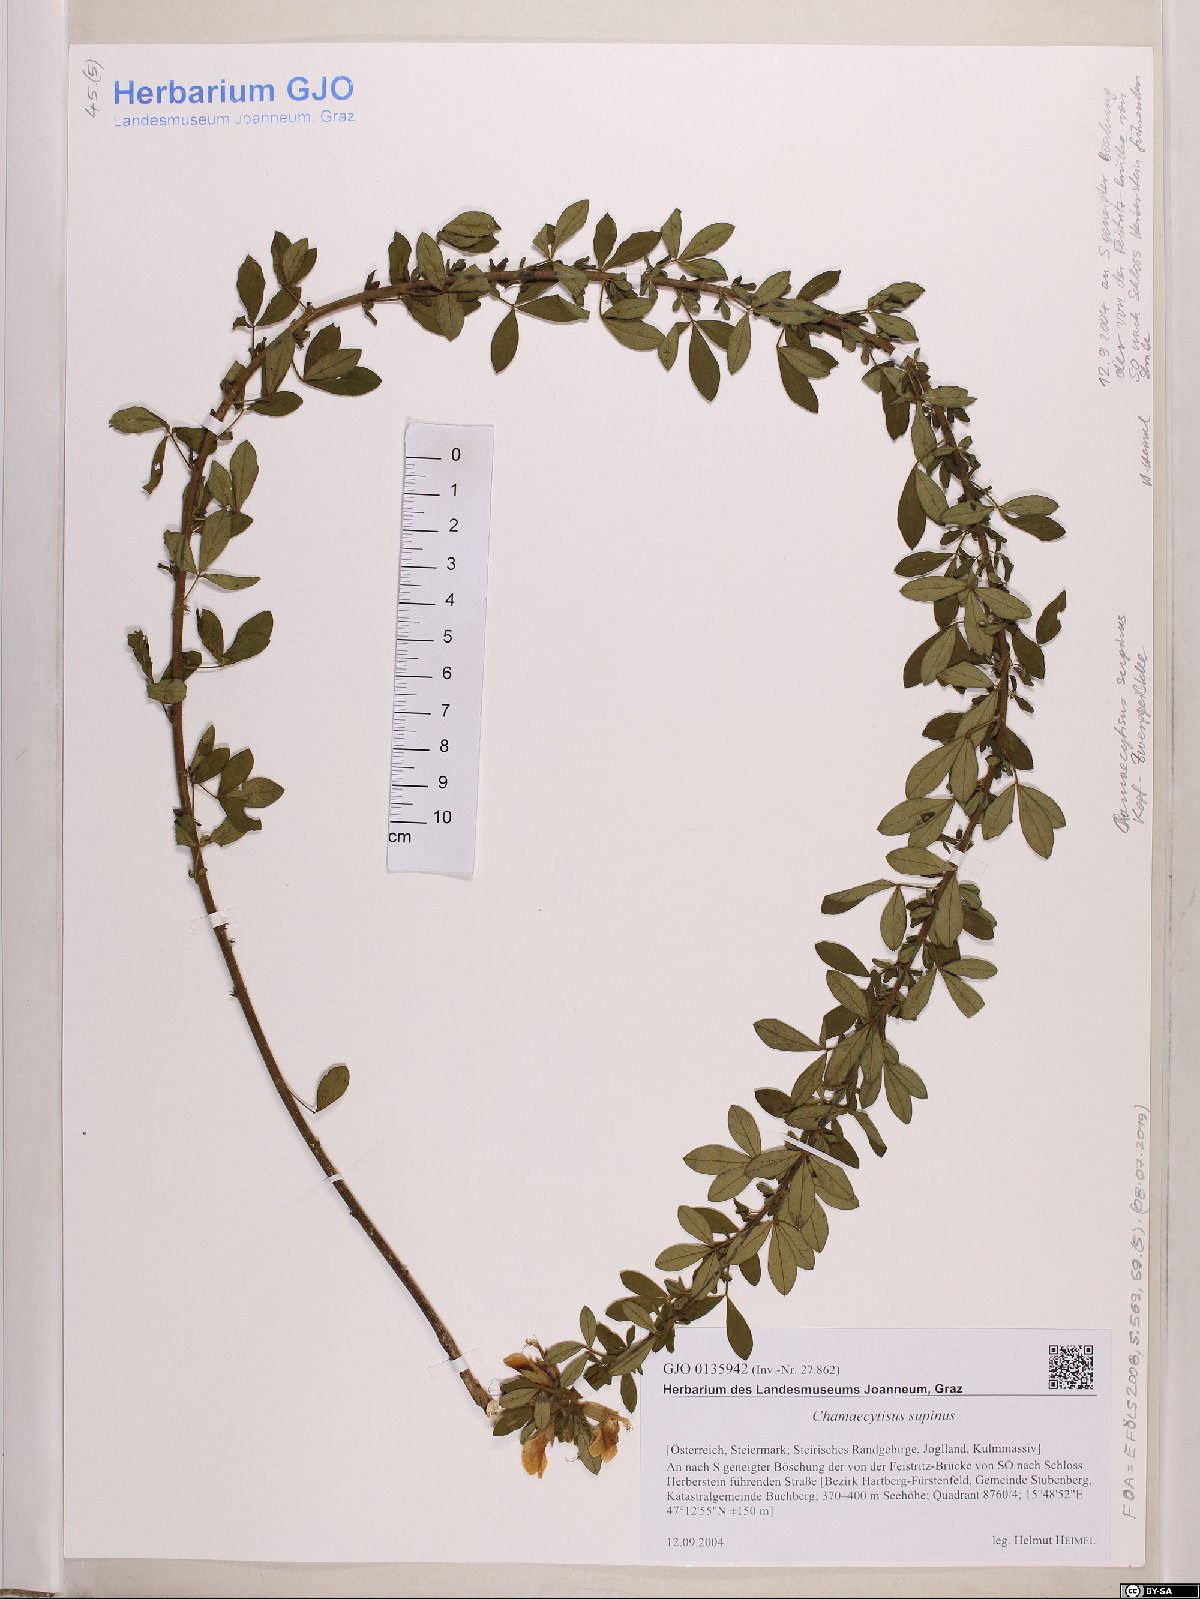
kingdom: Plantae
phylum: Tracheophyta
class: Magnoliopsida
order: Fabales
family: Fabaceae
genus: Chamaecytisus
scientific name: Chamaecytisus supinus
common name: Clustered broom
